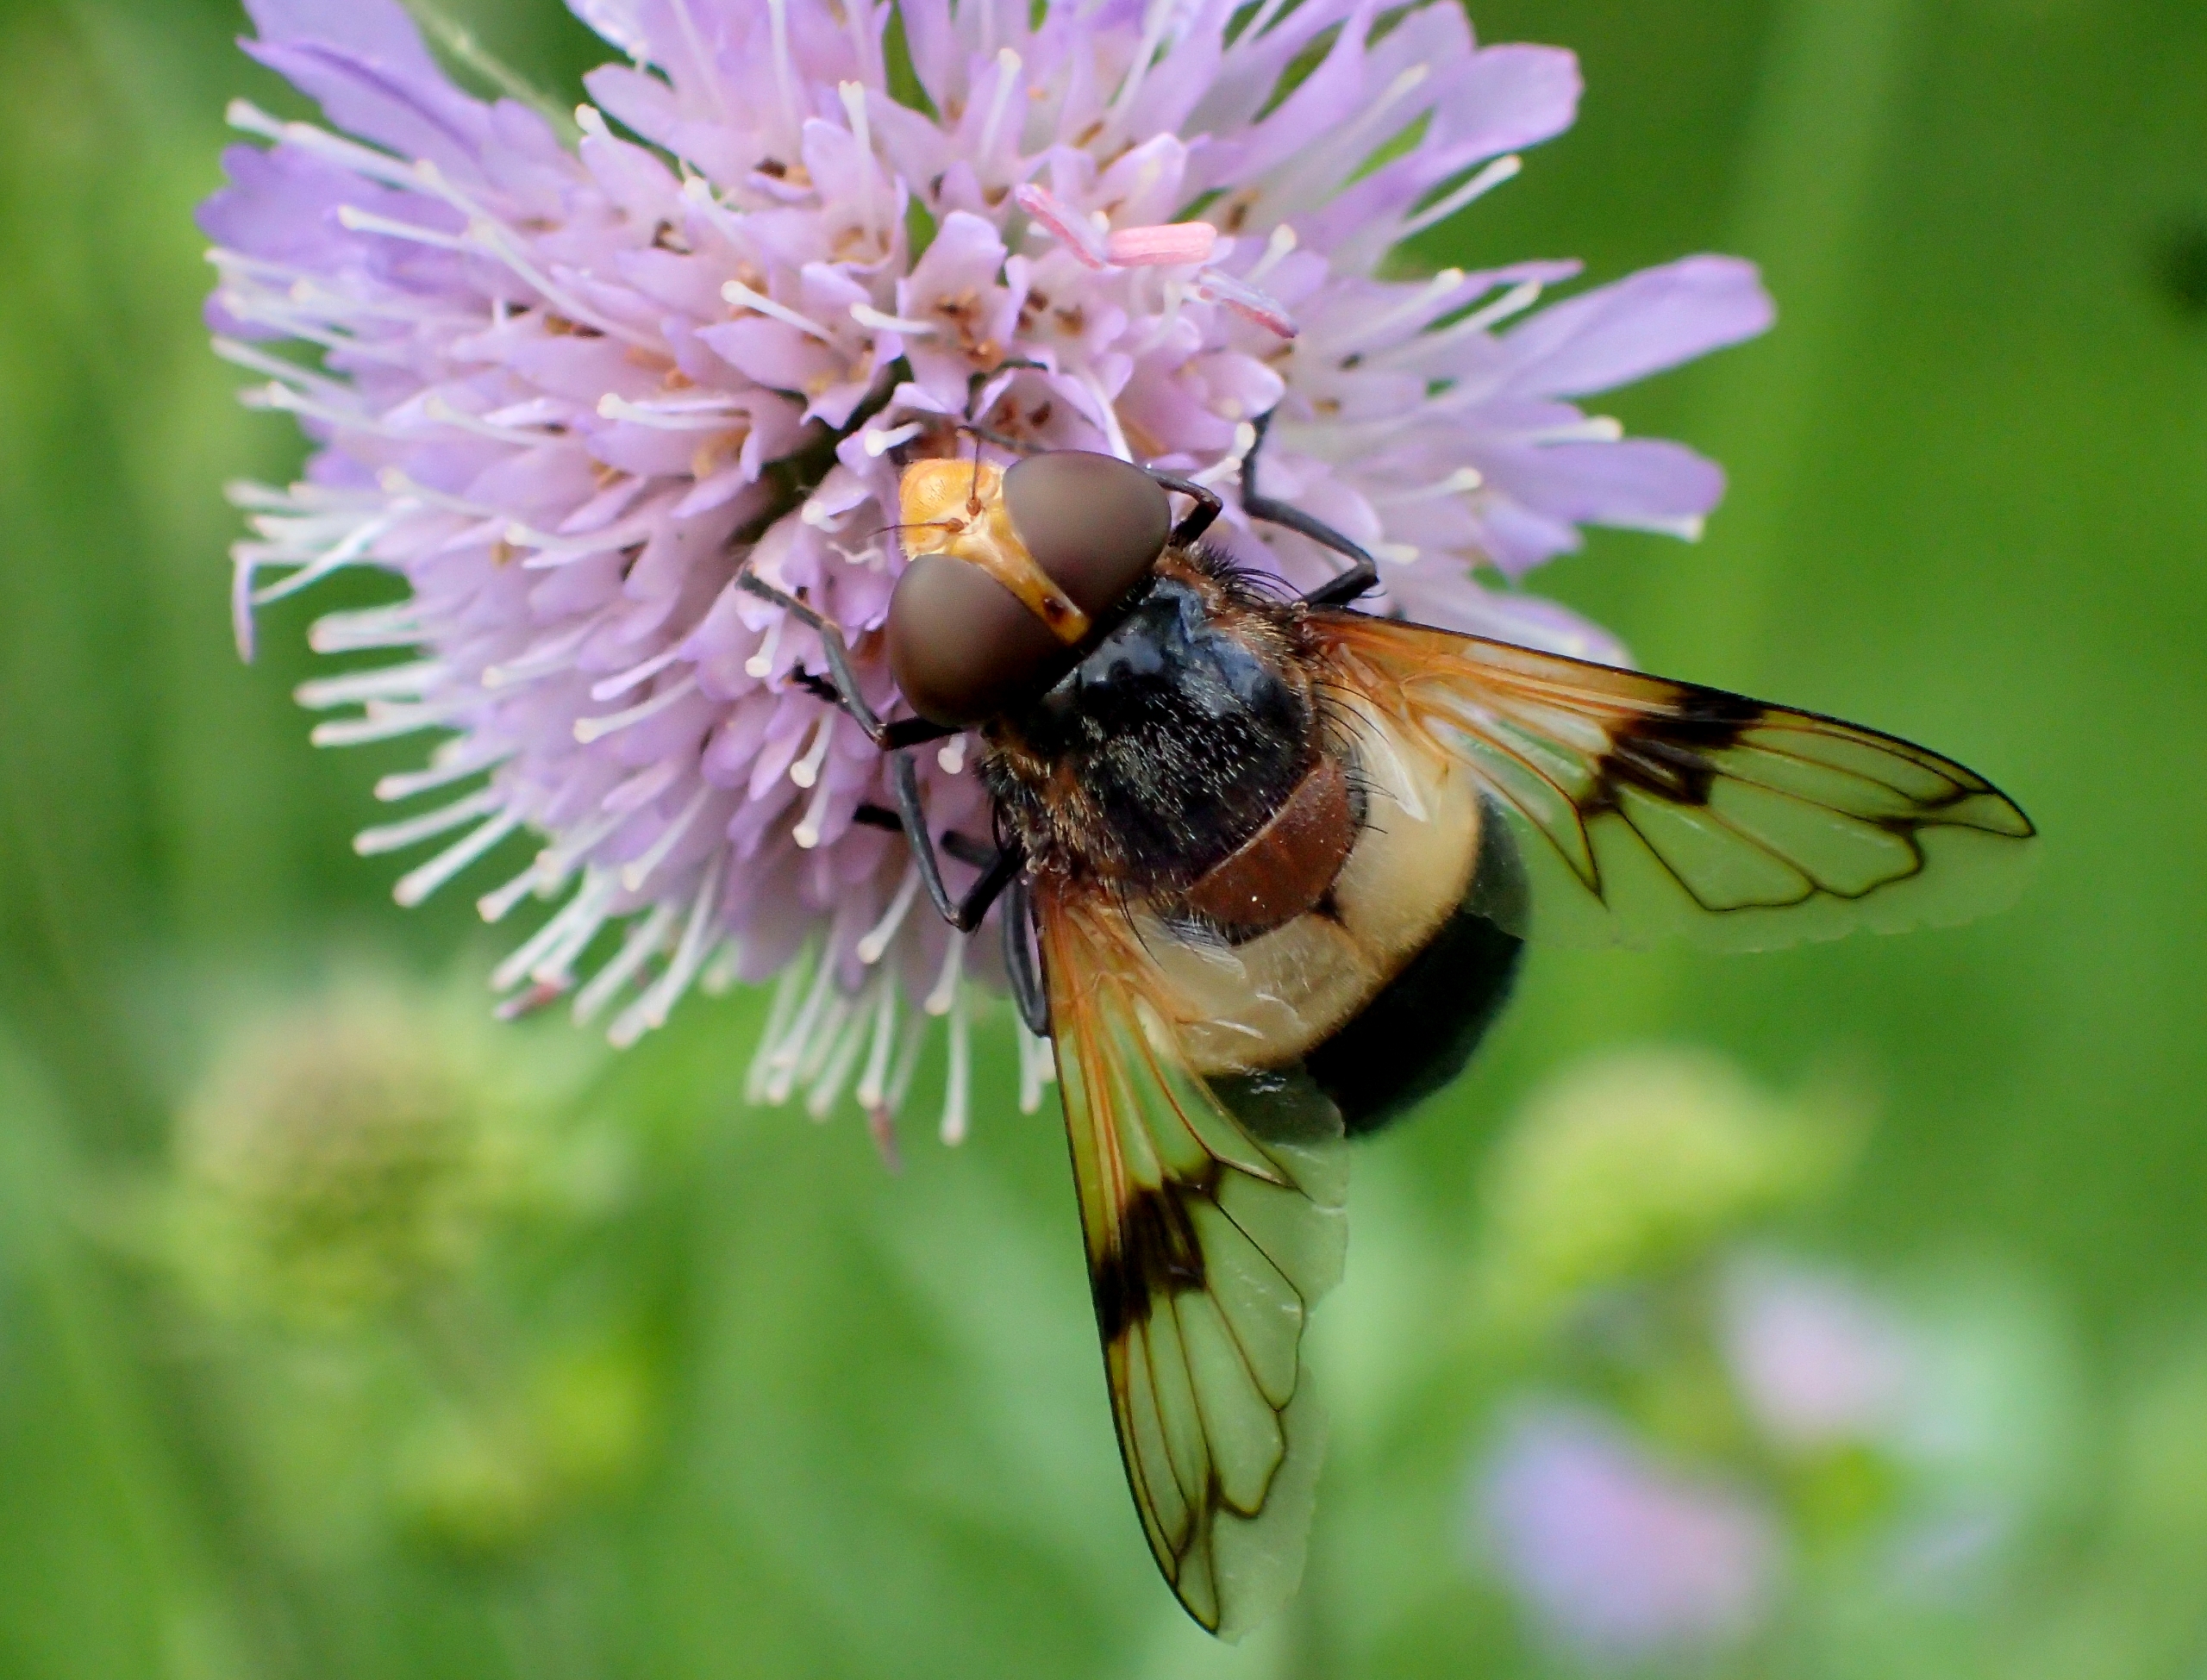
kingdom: Animalia
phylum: Arthropoda
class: Insecta
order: Diptera
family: Syrphidae
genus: Volucella
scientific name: Volucella pellucens
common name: Hvidbåndet humlesvirreflue
